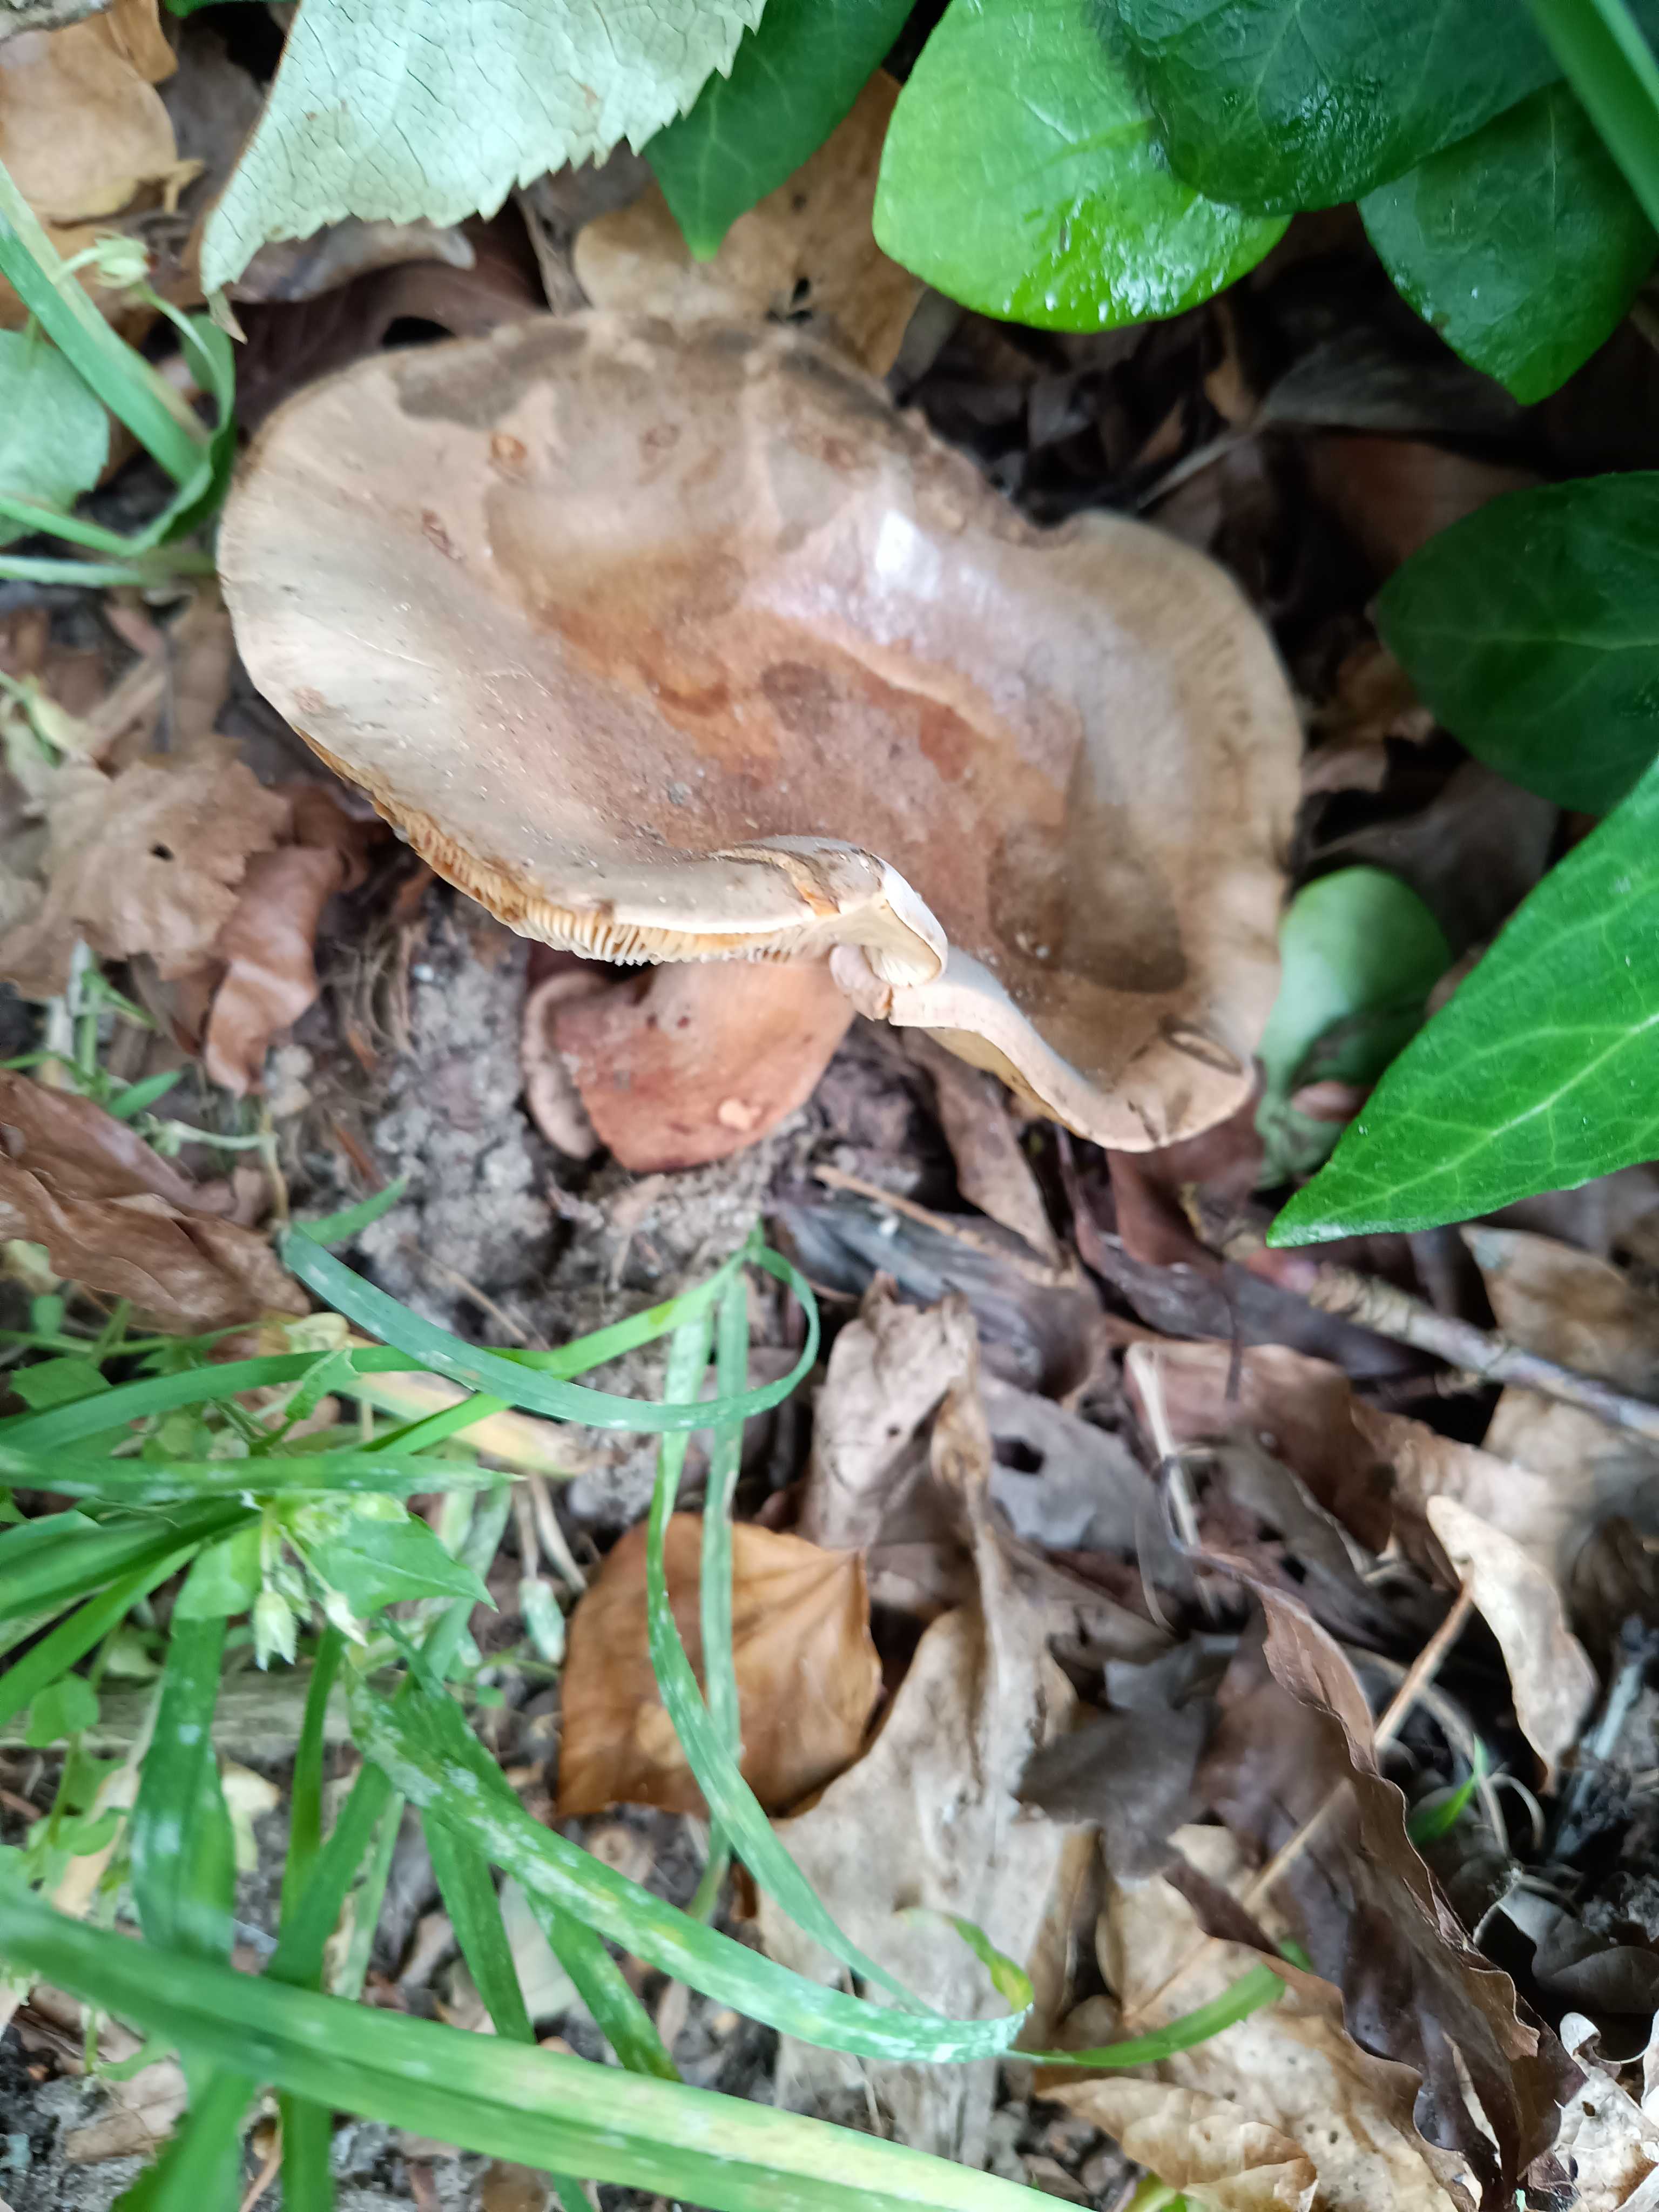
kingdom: Fungi
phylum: Basidiomycota
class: Agaricomycetes
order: Russulales
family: Russulaceae
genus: Lactarius
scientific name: Lactarius quietus
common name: ege-mælkehat
